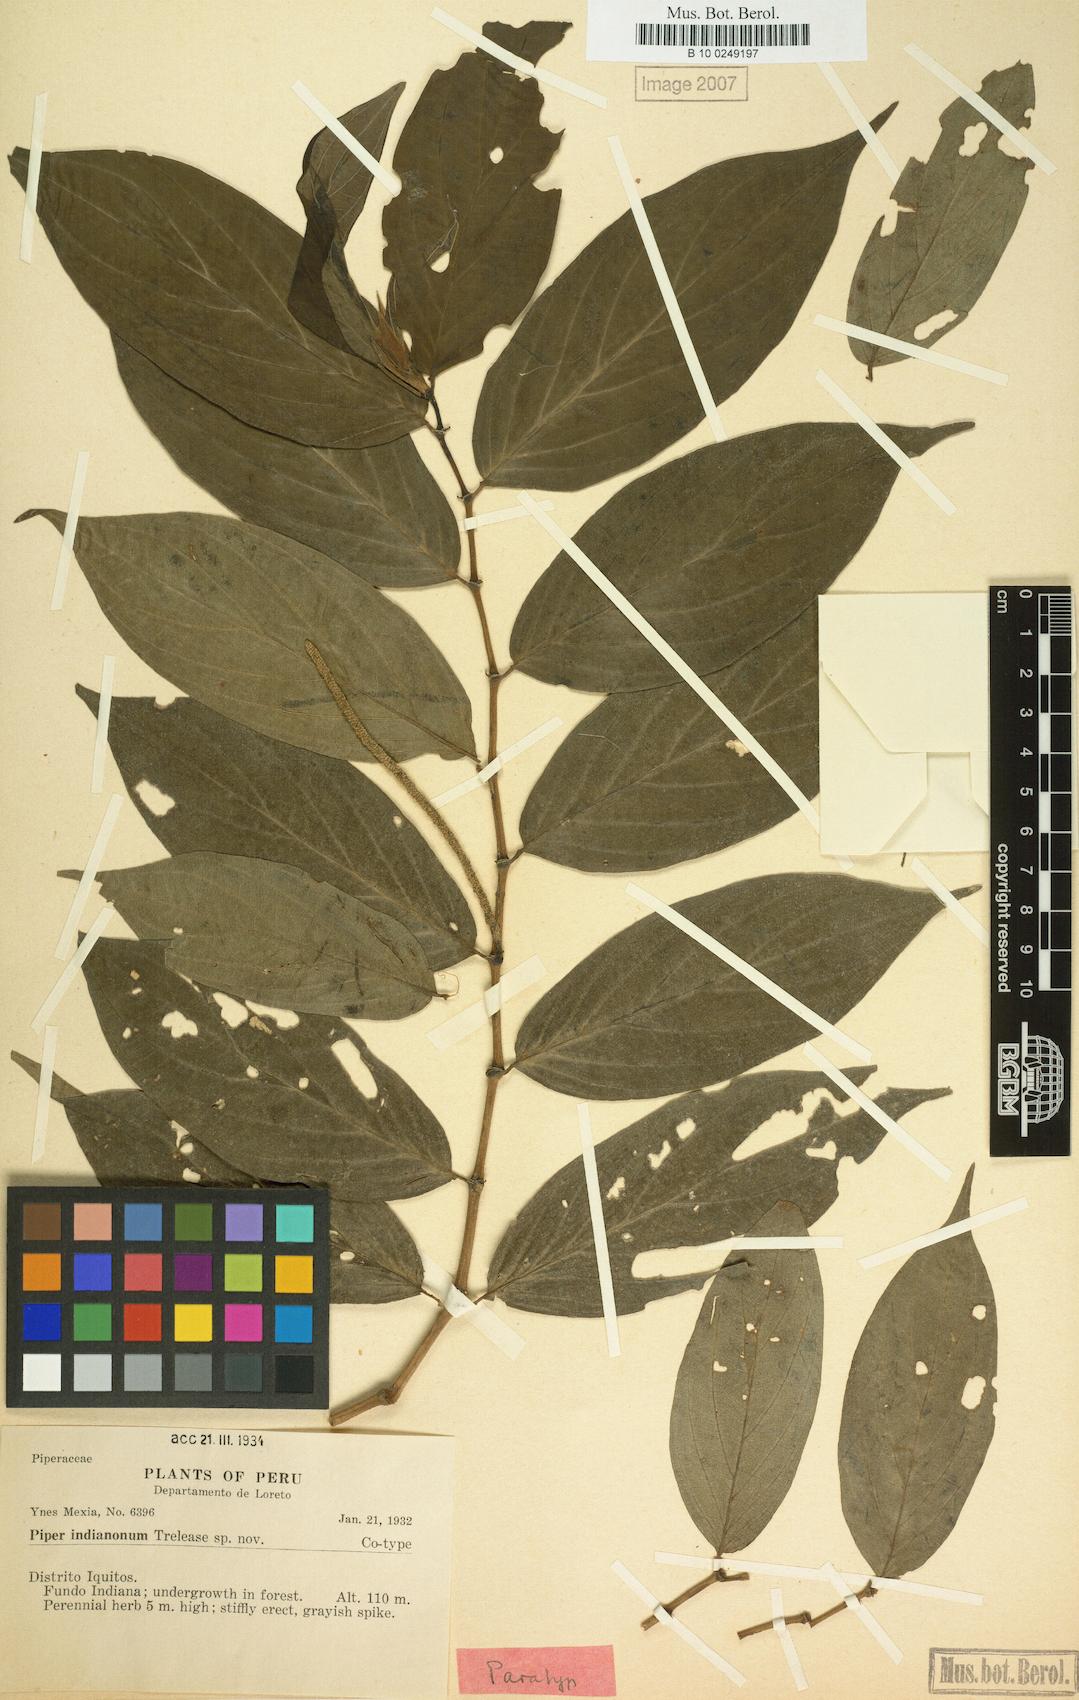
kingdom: Plantae
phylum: Tracheophyta
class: Magnoliopsida
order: Piperales
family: Piperaceae
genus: Piper
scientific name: Piper indianonum
